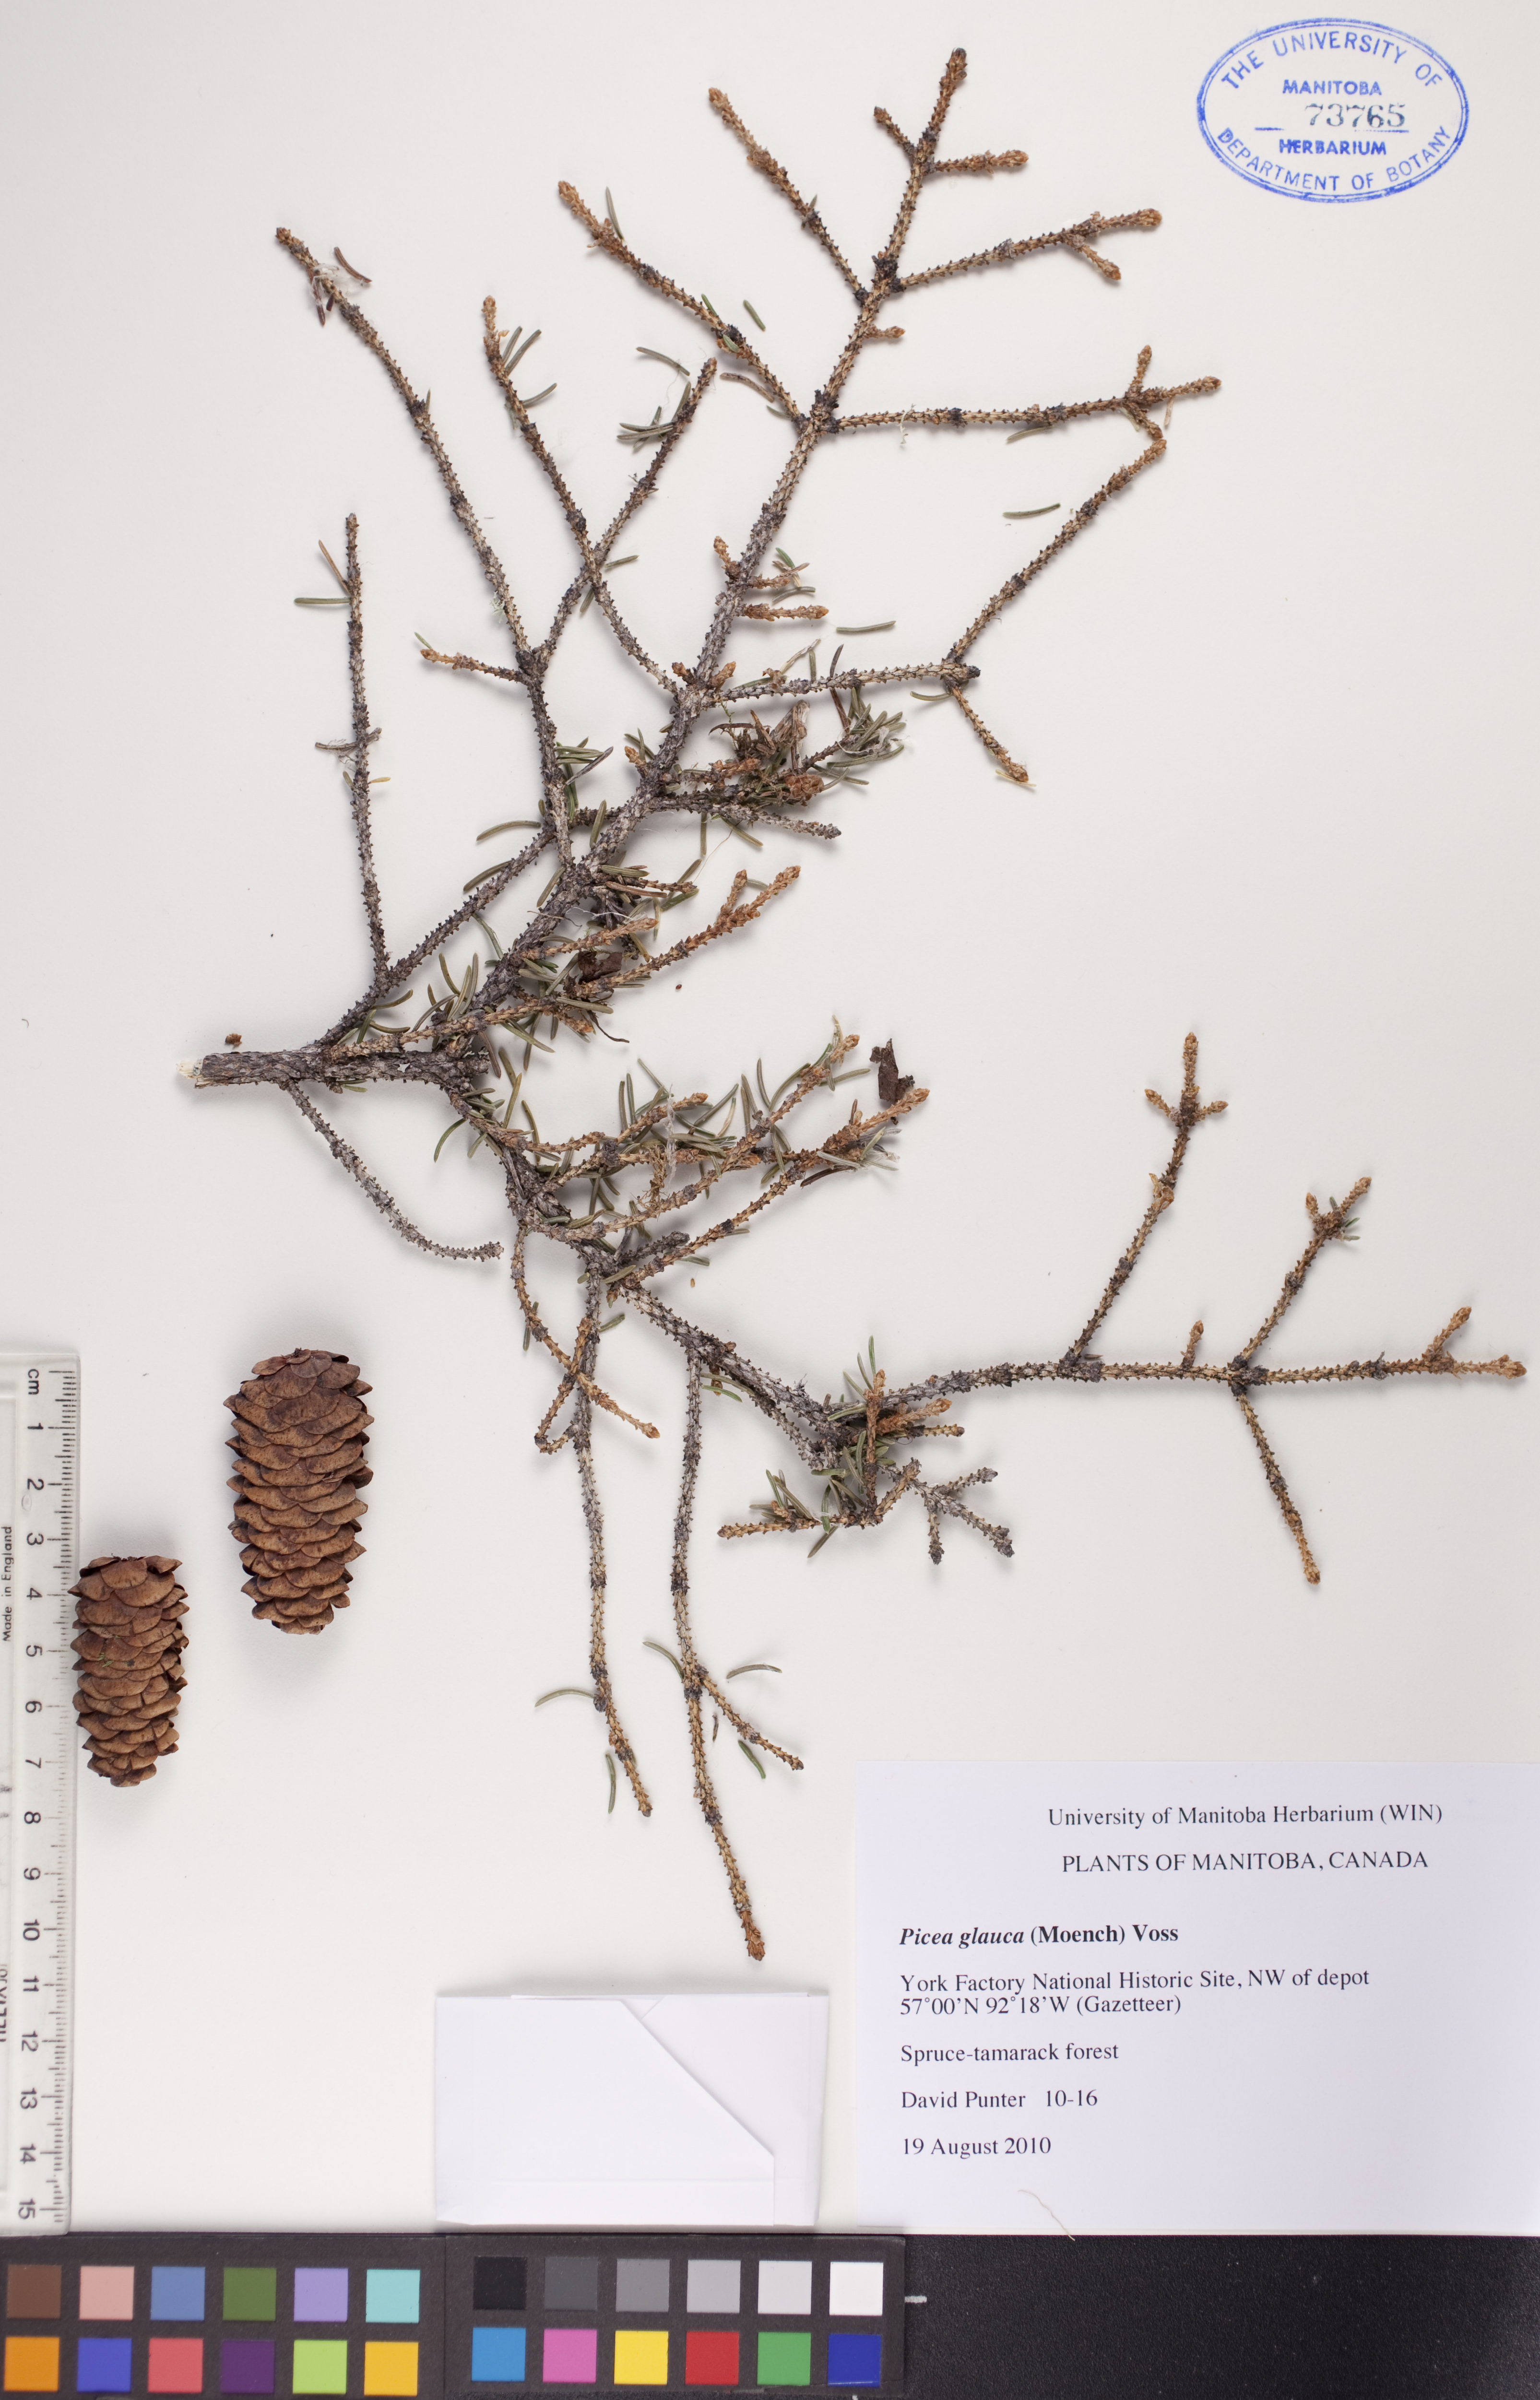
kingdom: Plantae
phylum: Tracheophyta
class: Pinopsida
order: Pinales
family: Pinaceae
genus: Picea
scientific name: Picea glauca
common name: White spruce
